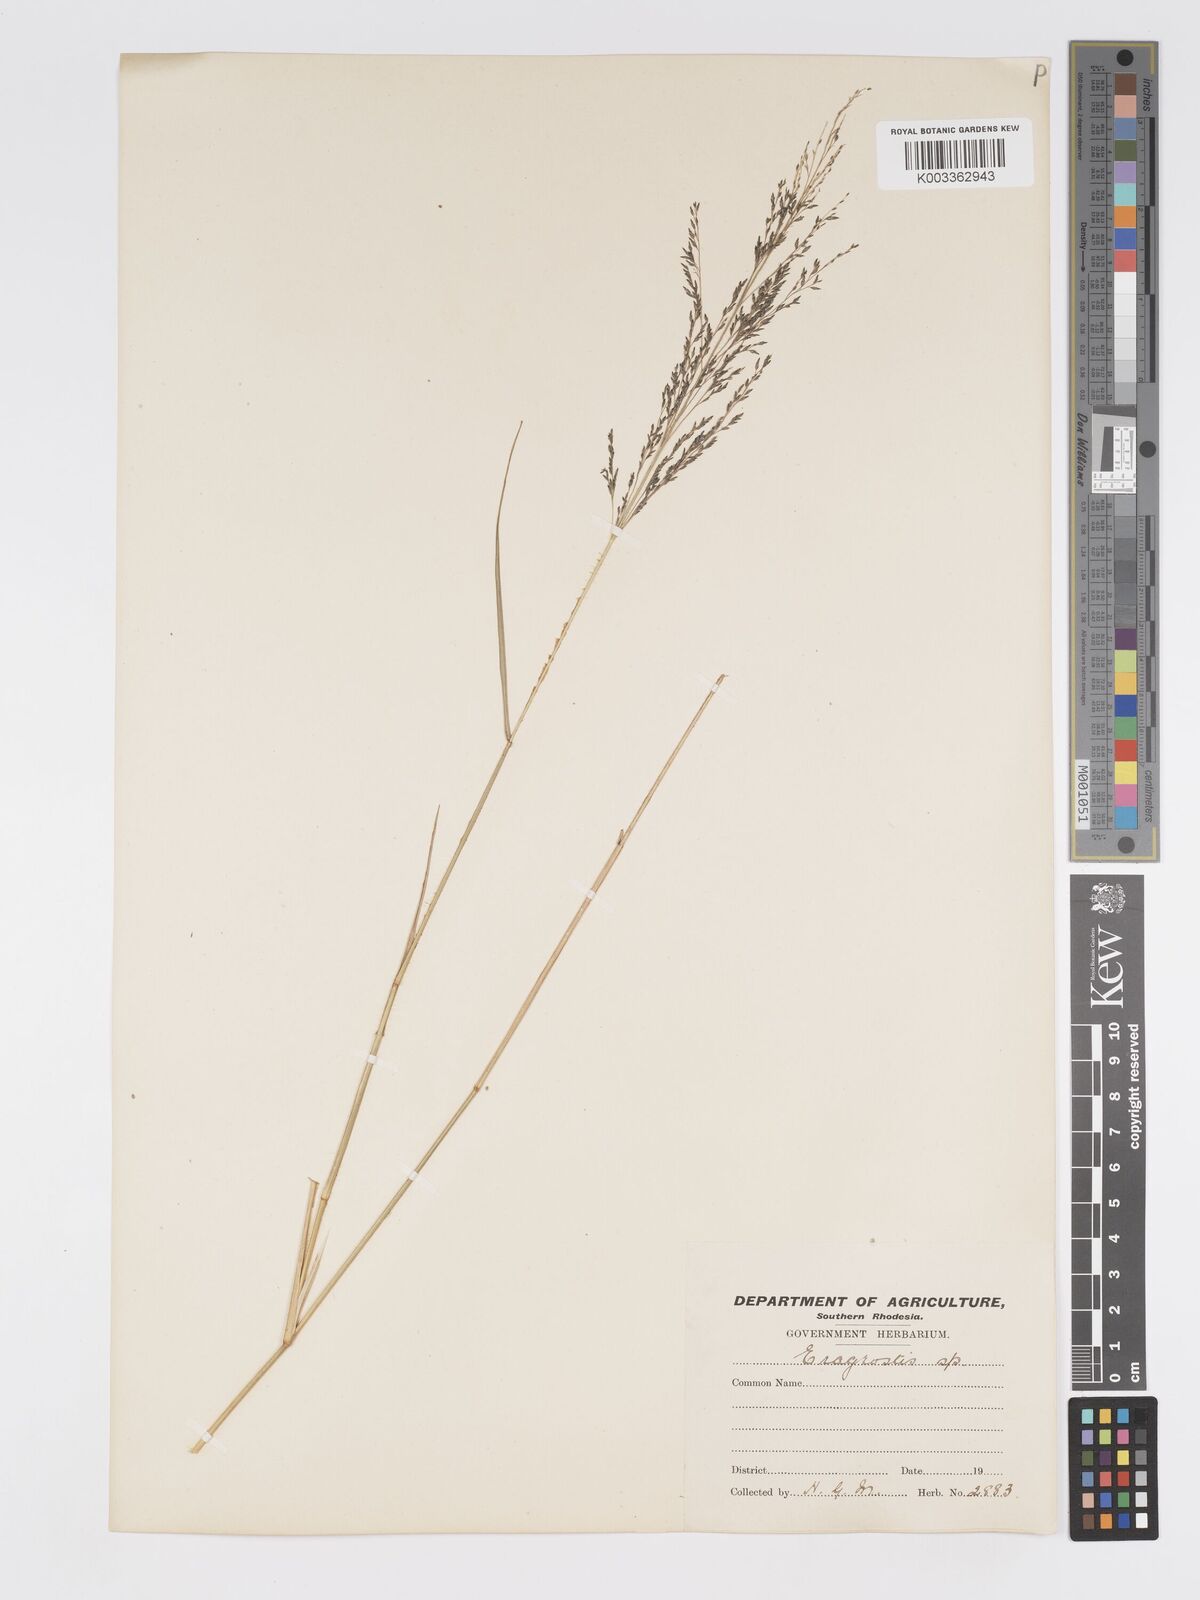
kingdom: Plantae
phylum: Tracheophyta
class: Liliopsida
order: Poales
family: Poaceae
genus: Eragrostis
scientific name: Eragrostis cylindriflora
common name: Cylinderflower lovegrass
